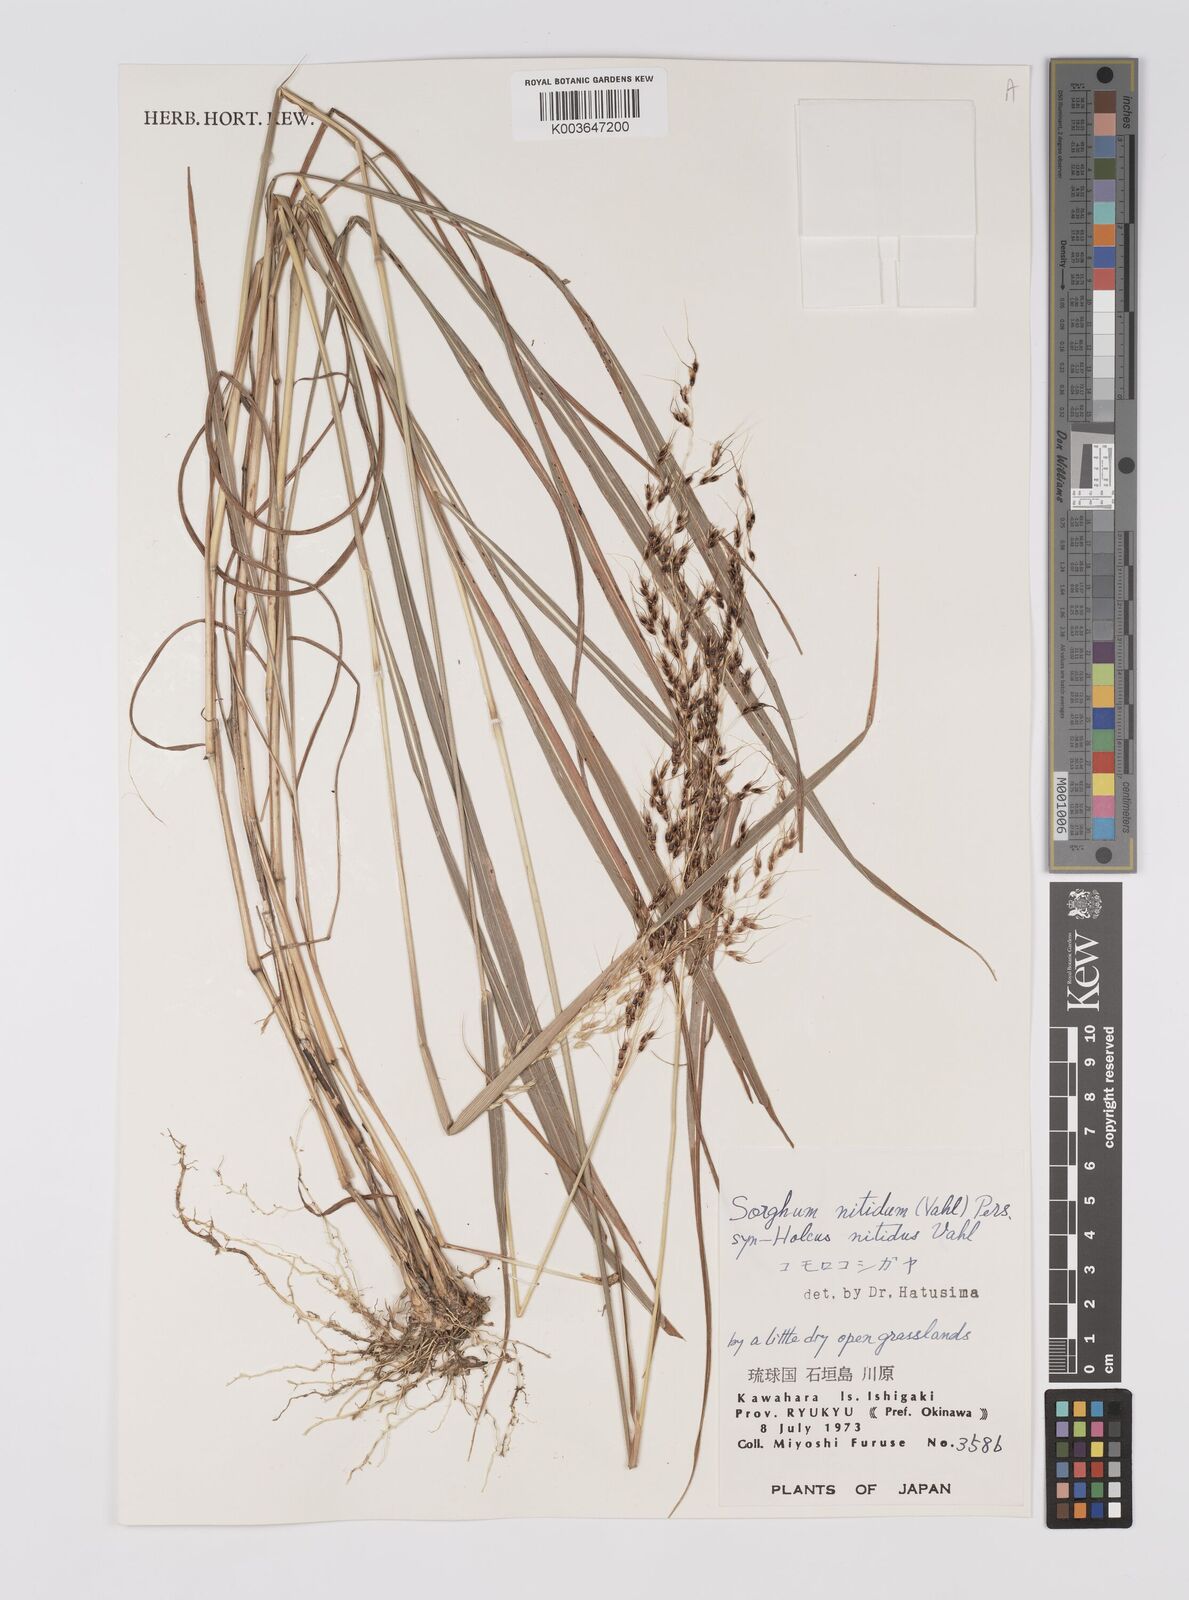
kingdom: Plantae
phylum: Tracheophyta
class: Liliopsida
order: Poales
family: Poaceae
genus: Sorghum
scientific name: Sorghum nitidum
